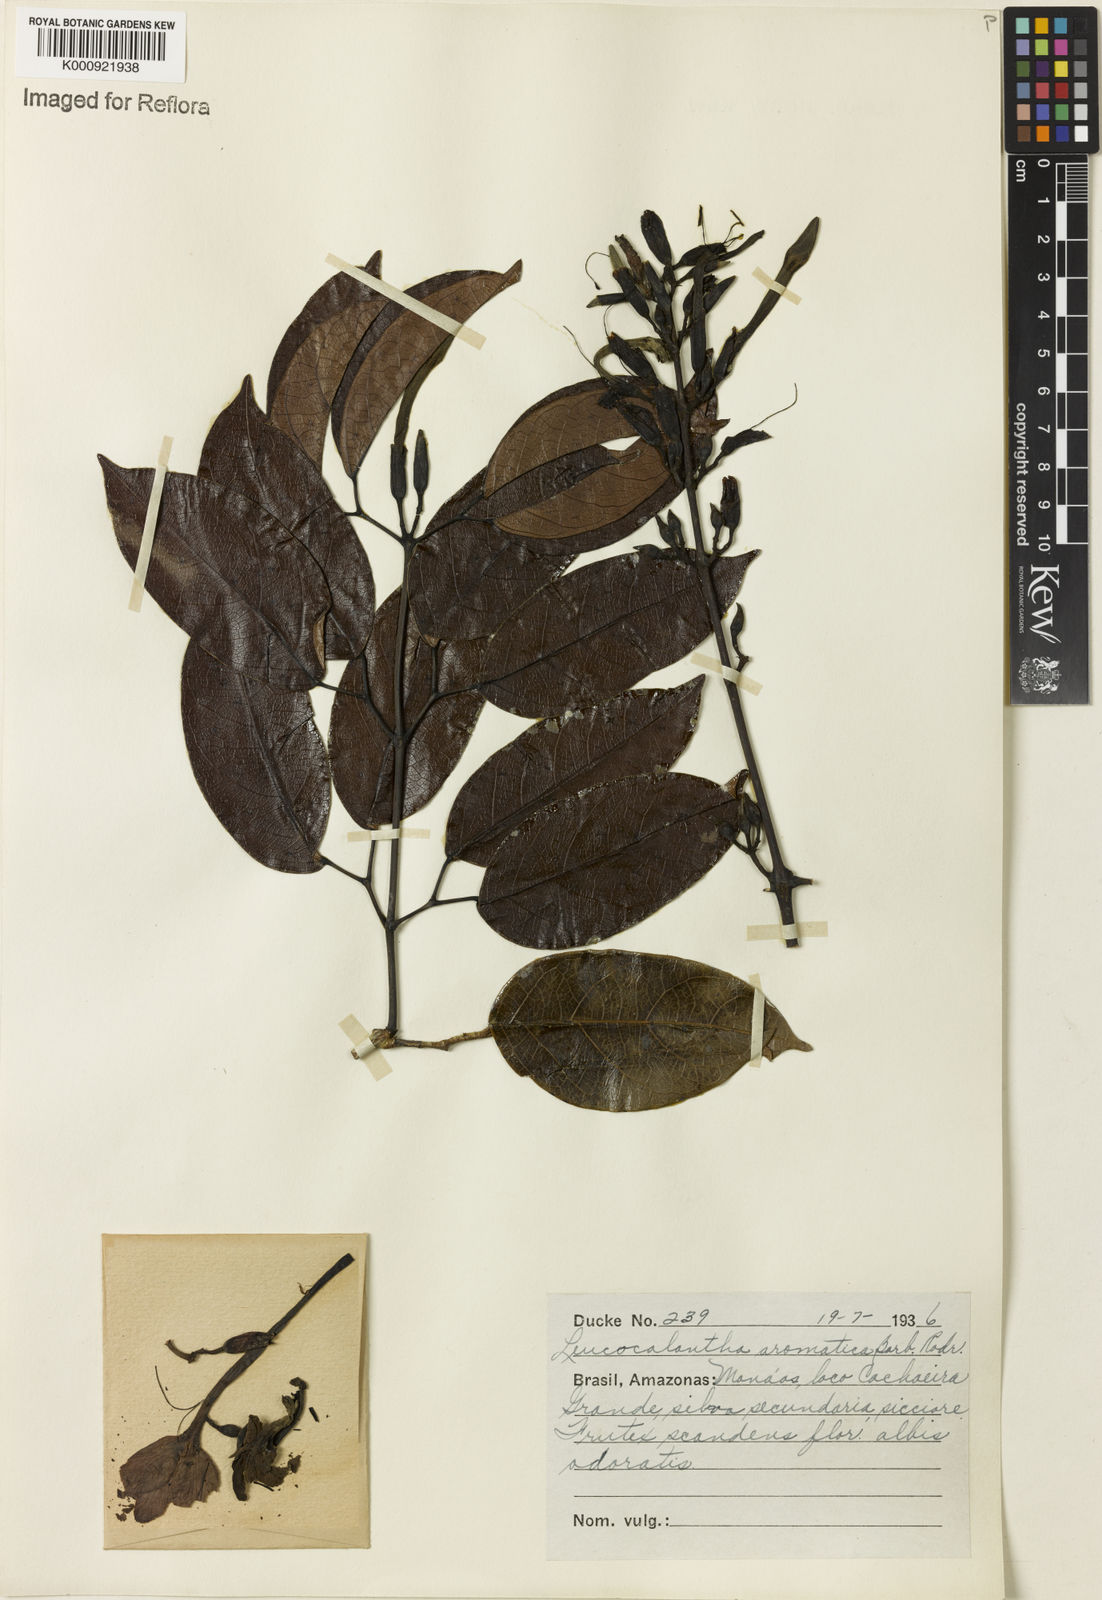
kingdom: Plantae
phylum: Tracheophyta
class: Magnoliopsida
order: Lamiales
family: Bignoniaceae
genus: Pachyptera
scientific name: Pachyptera aromatica
